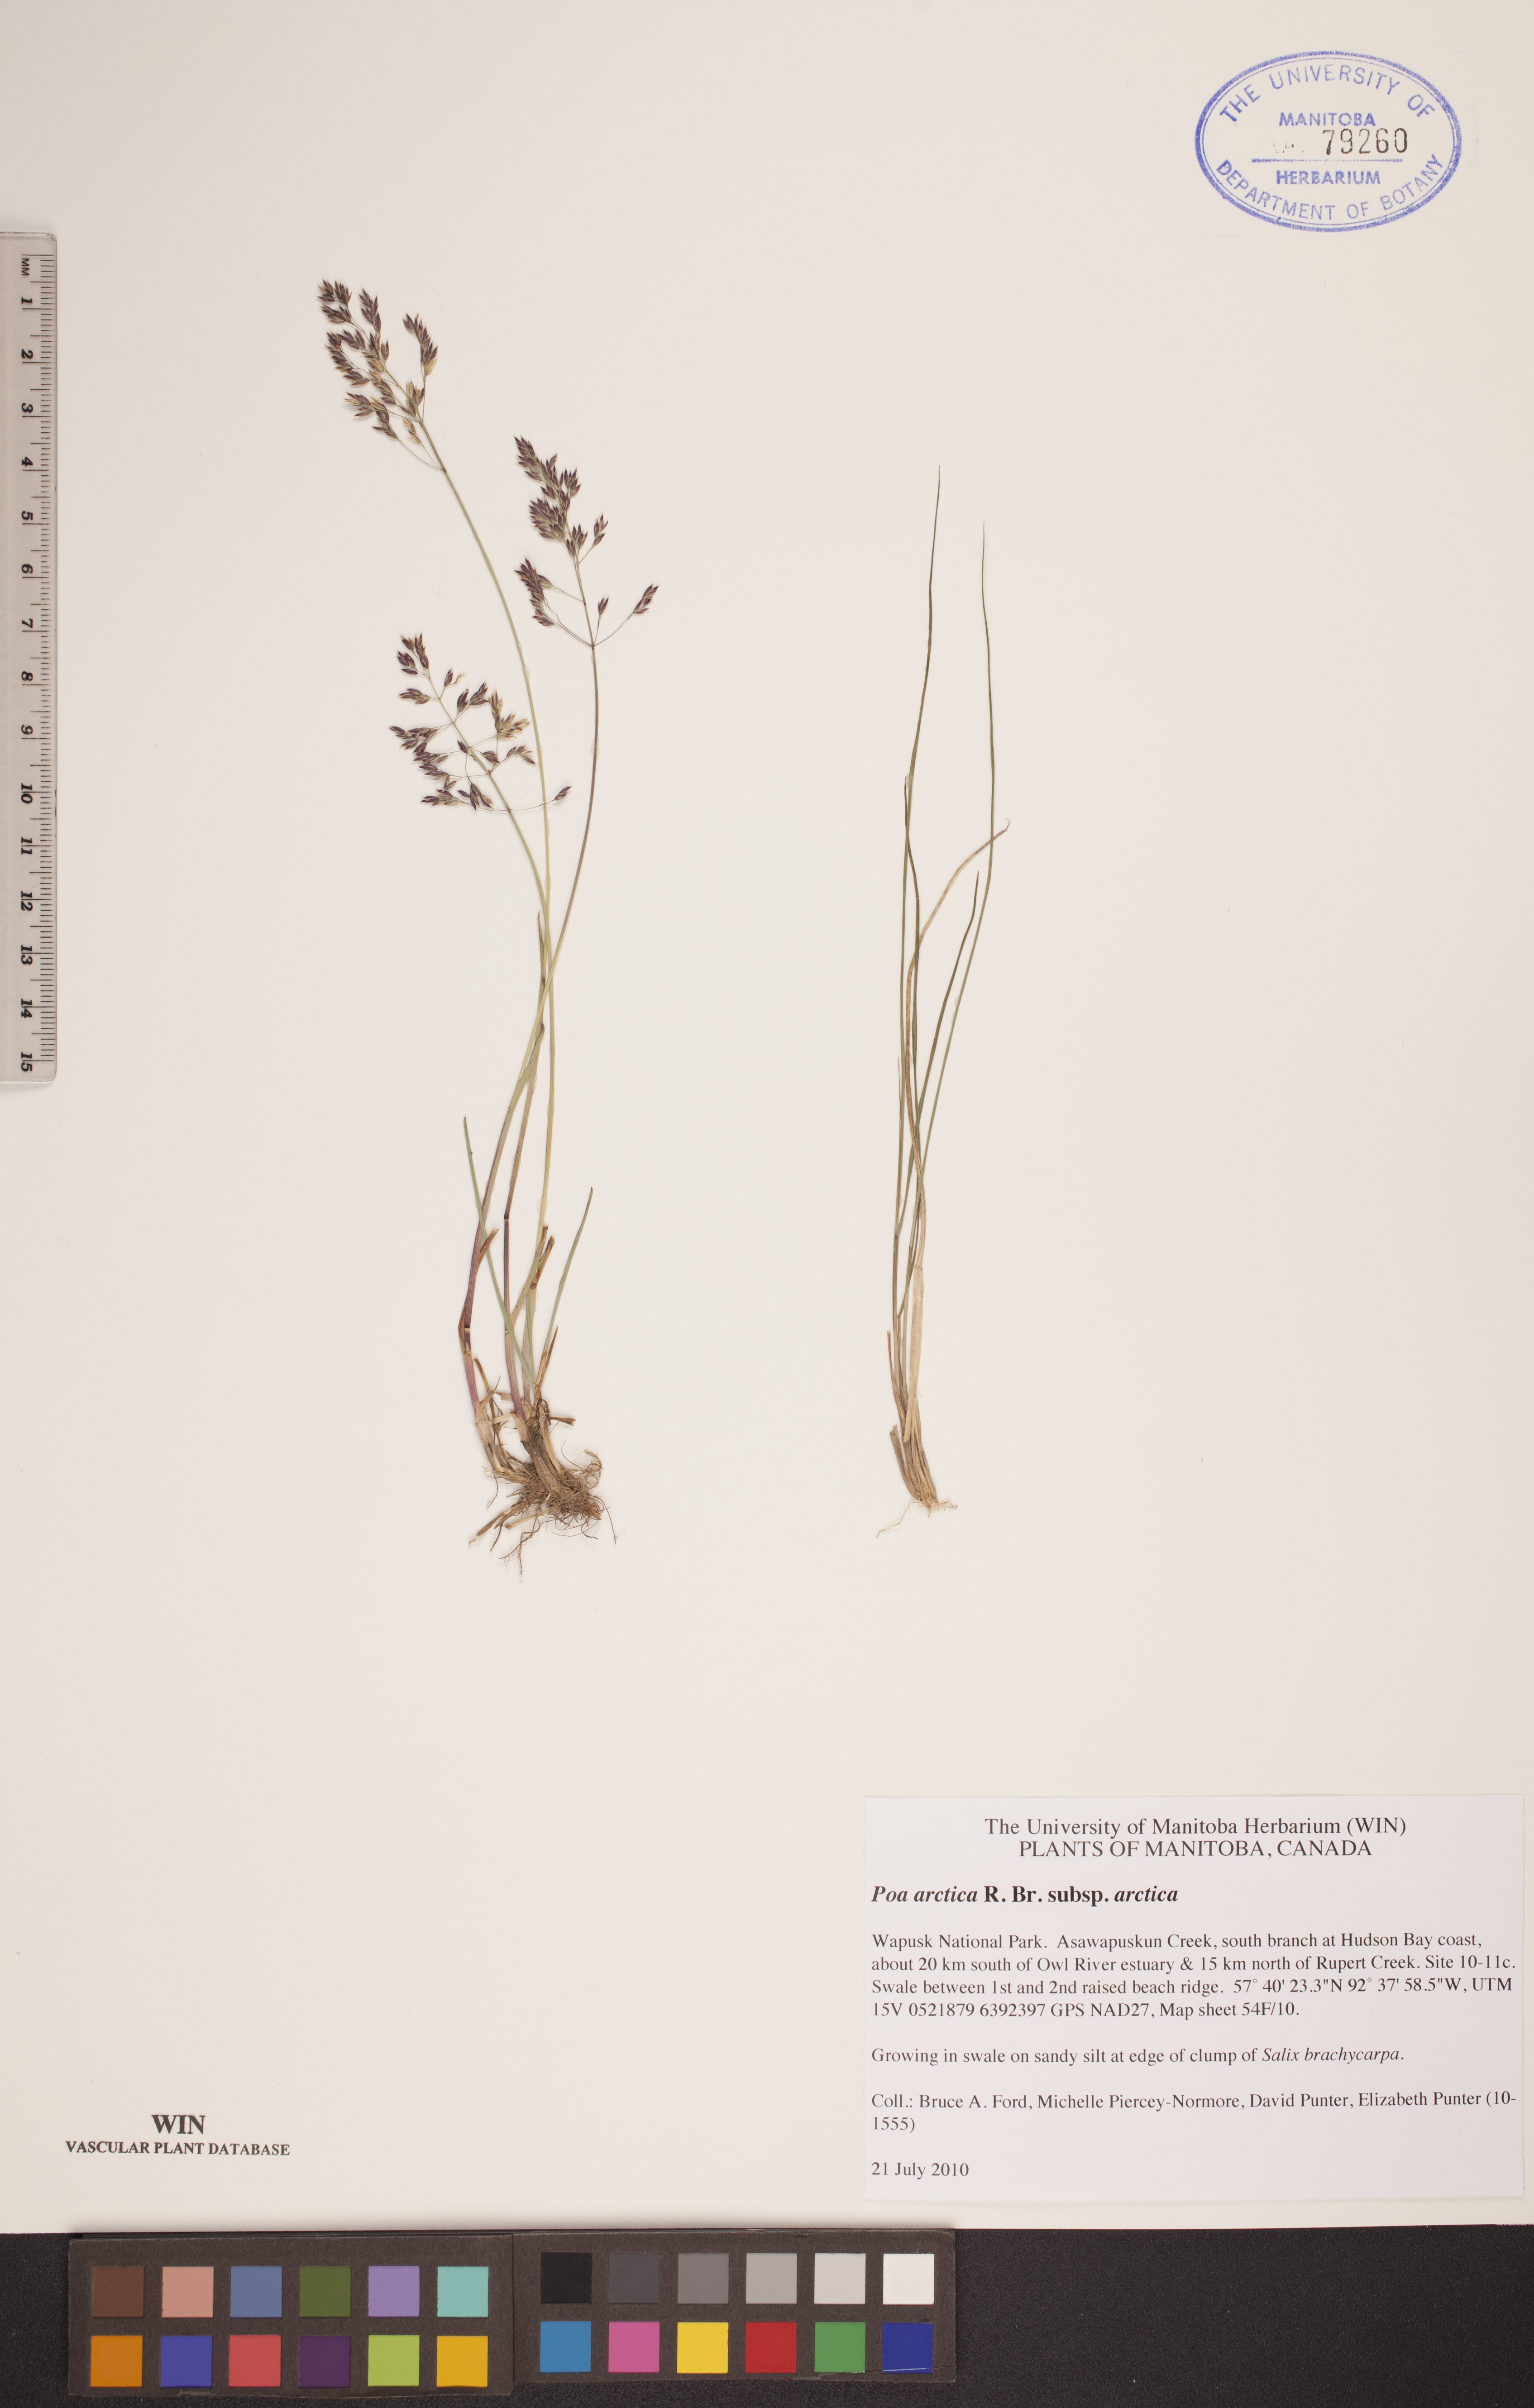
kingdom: Plantae
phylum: Tracheophyta
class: Liliopsida
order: Poales
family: Poaceae
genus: Poa
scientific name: Poa arctica
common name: Arctic bluegrass
